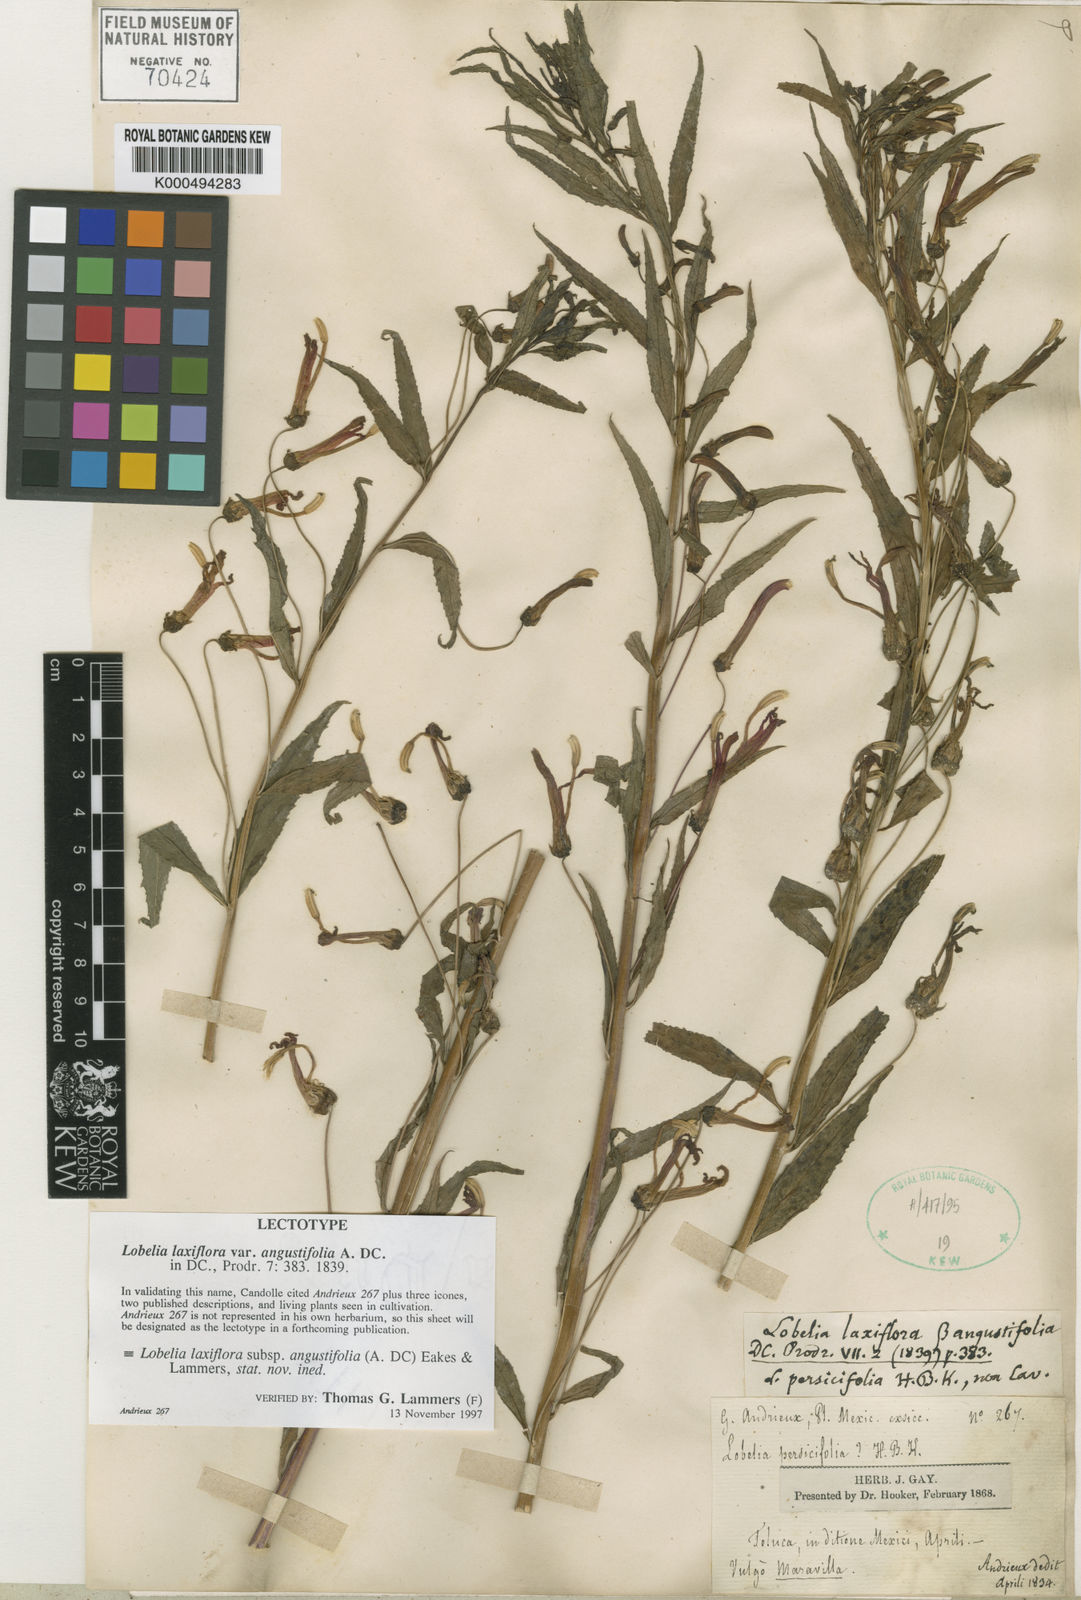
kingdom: Plantae
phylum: Tracheophyta
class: Magnoliopsida
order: Asterales
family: Campanulaceae
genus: Lobelia
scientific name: Lobelia laxiflora
